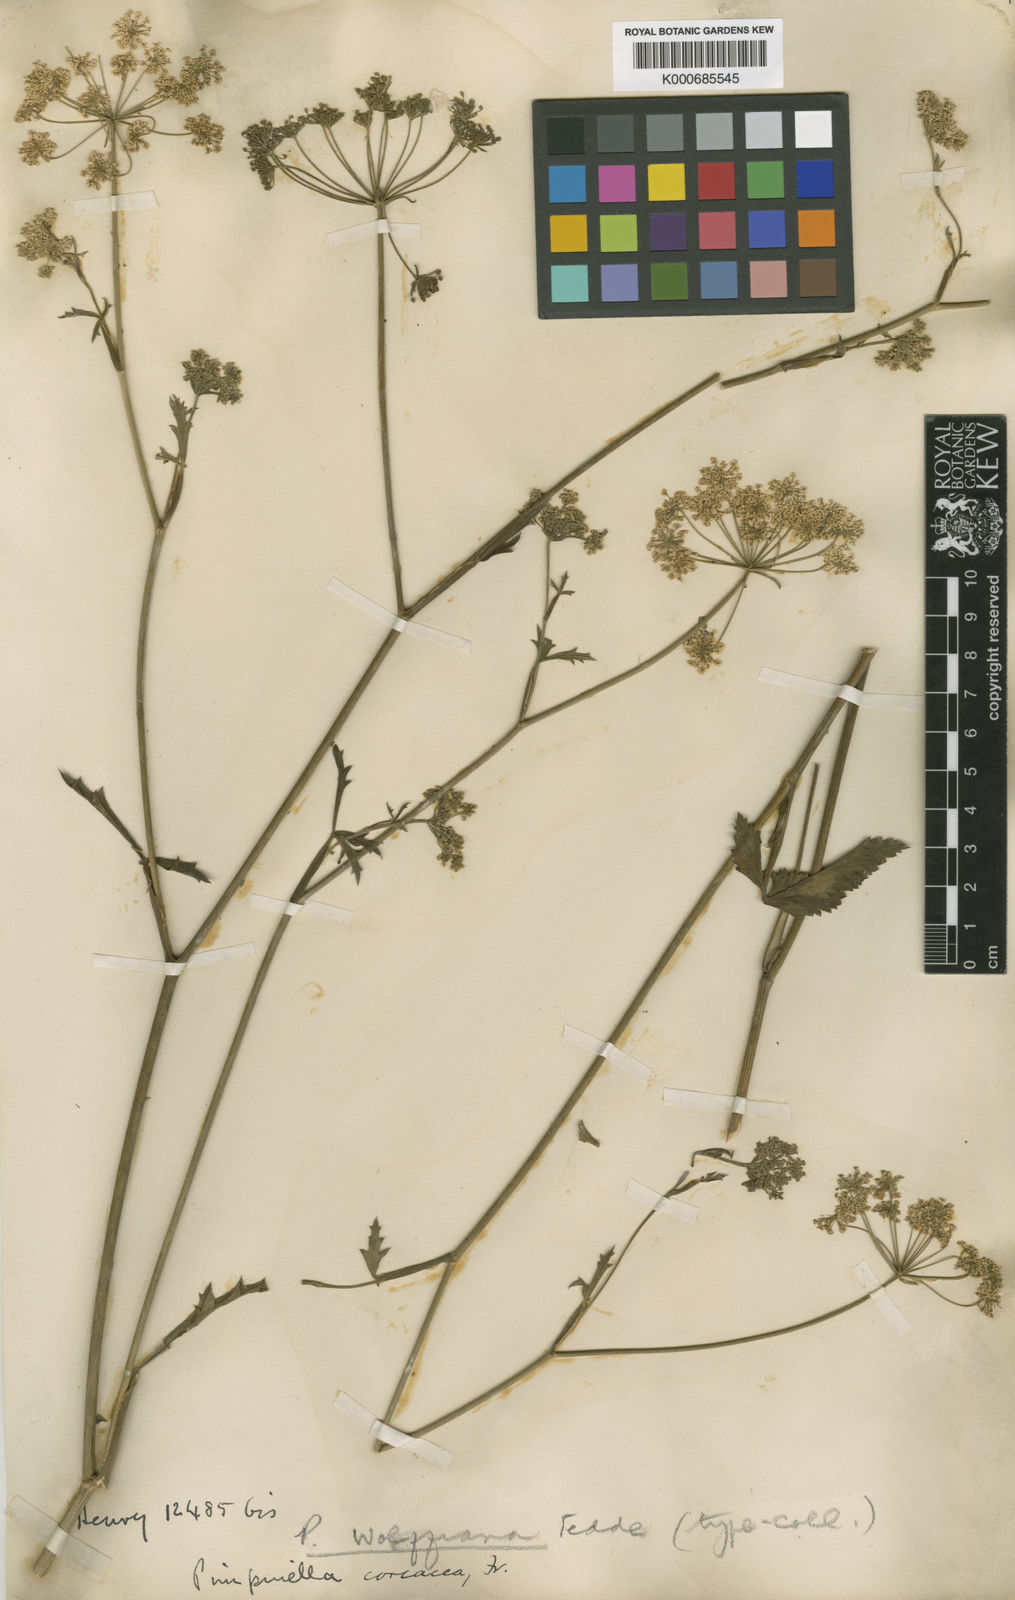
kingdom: Plantae
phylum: Tracheophyta
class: Magnoliopsida
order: Apiales
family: Apiaceae
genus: Pimpinella
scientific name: Pimpinella
